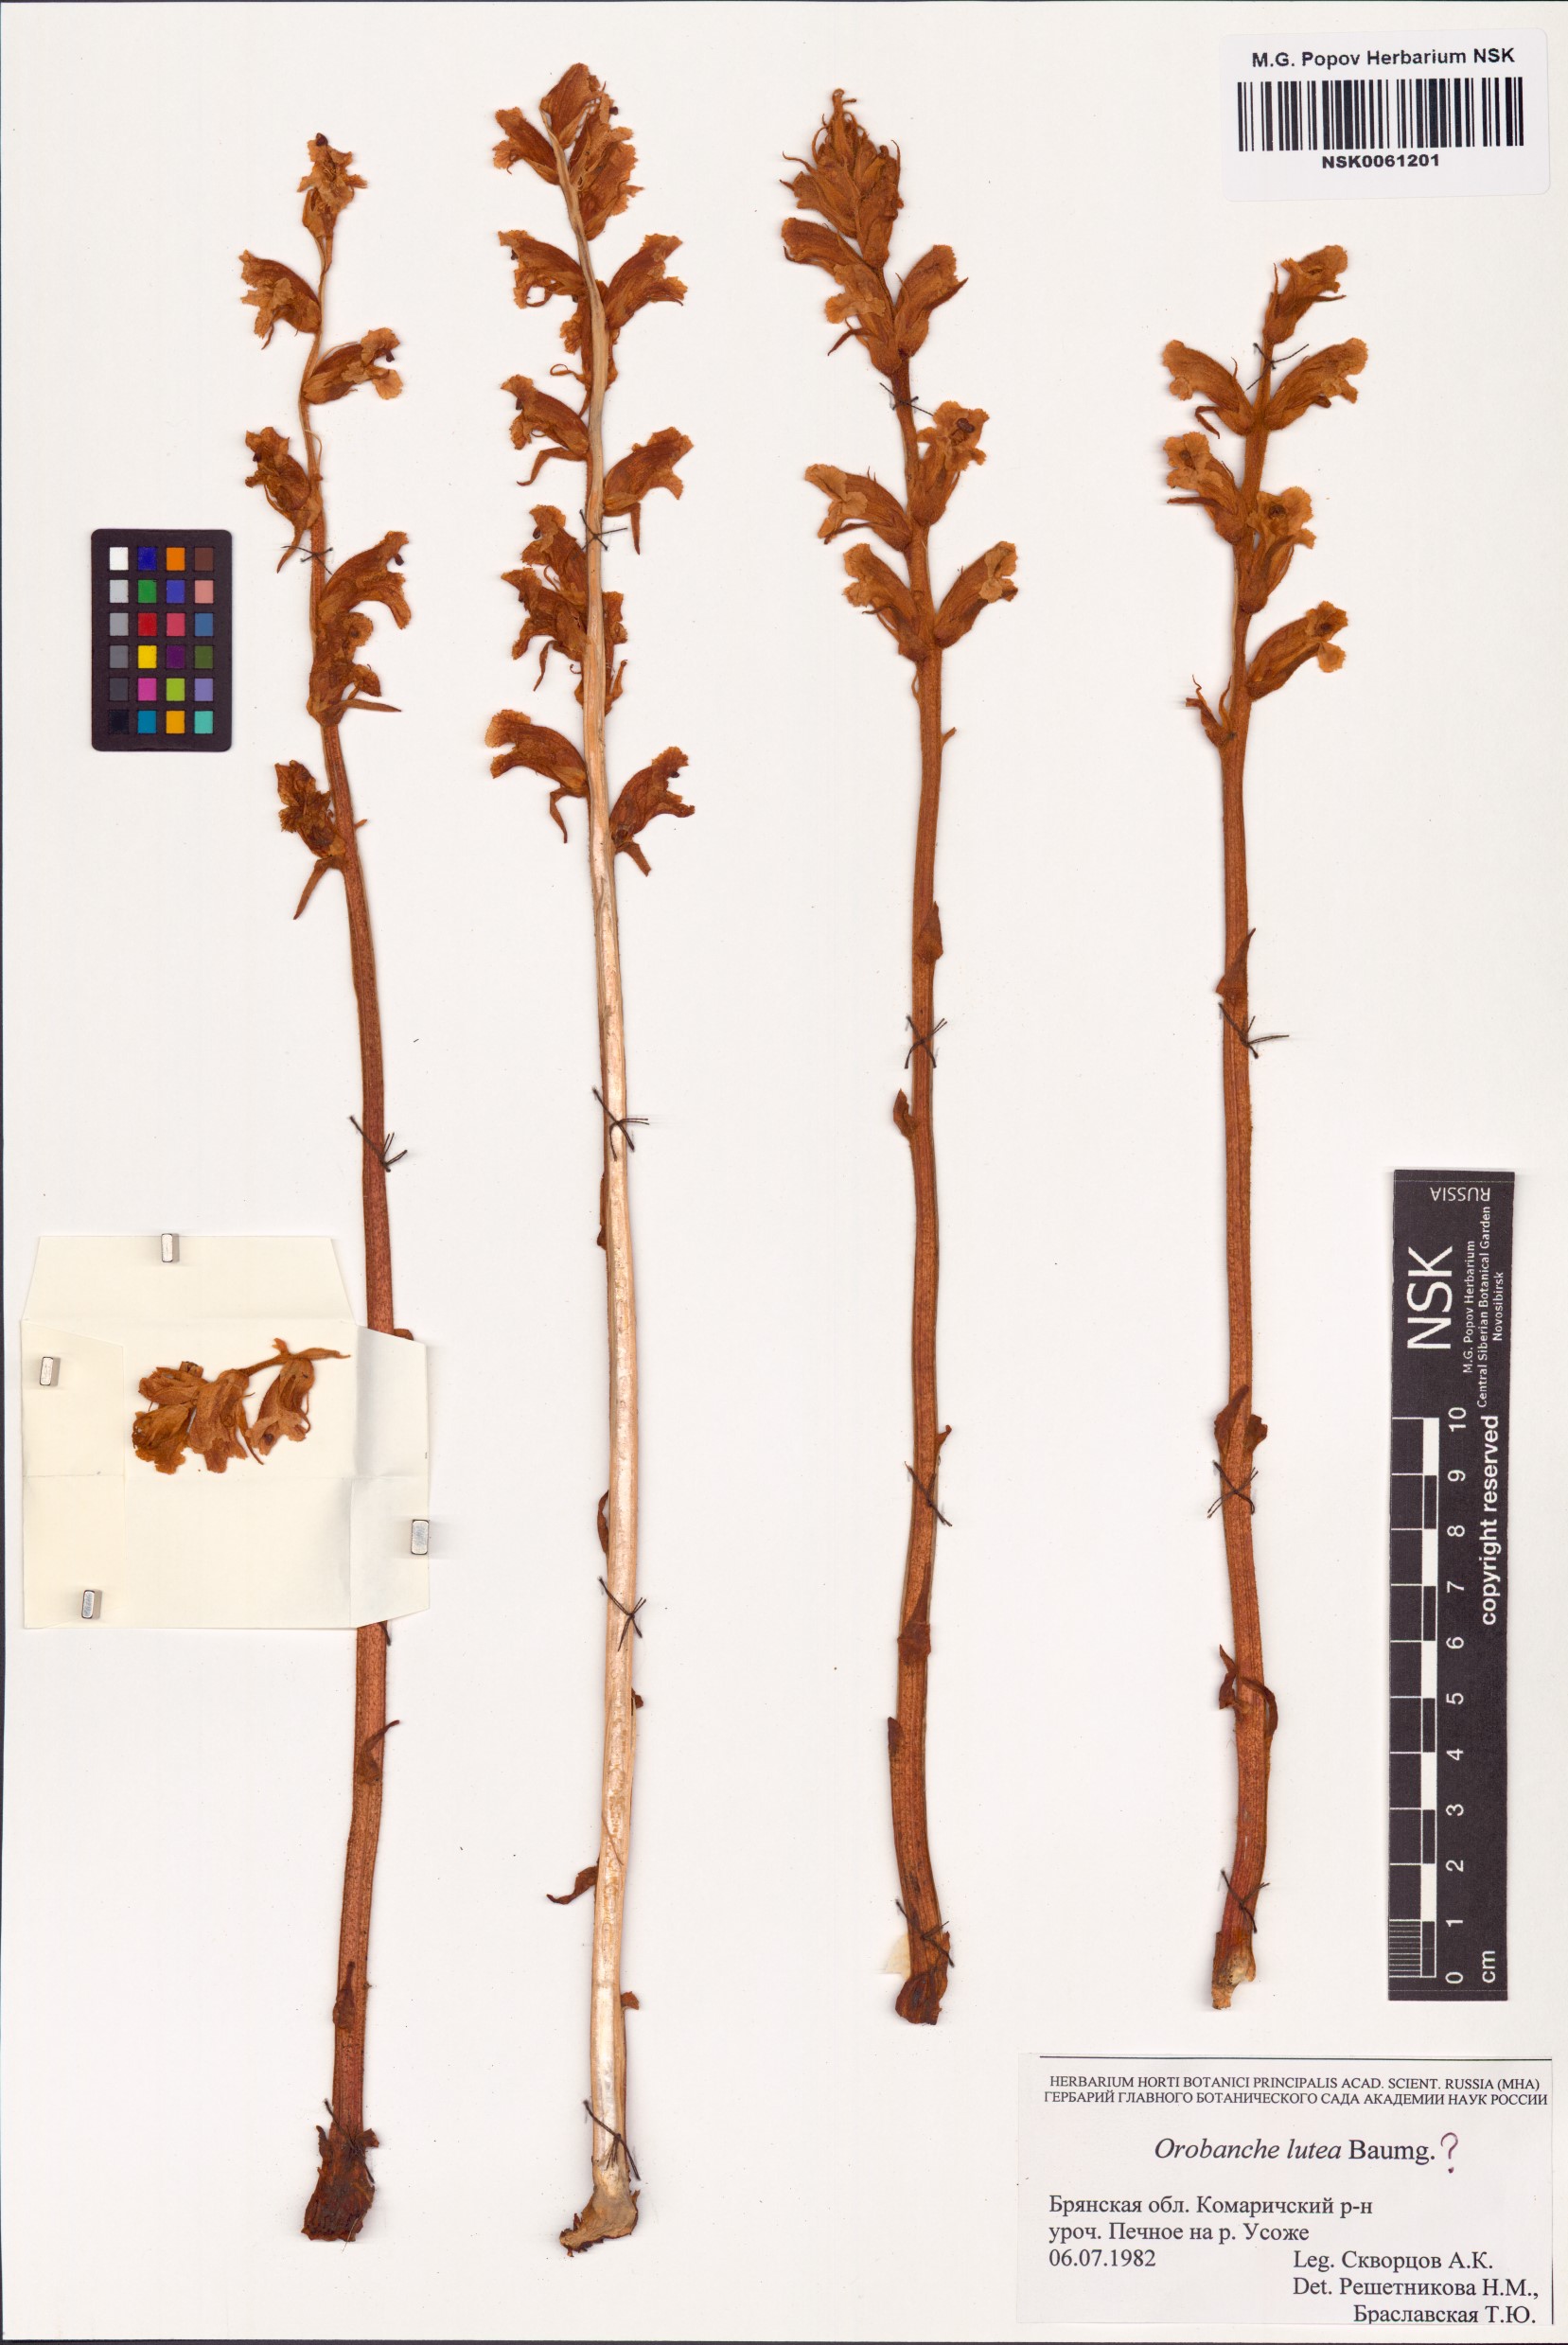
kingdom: Plantae
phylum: Tracheophyta
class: Magnoliopsida
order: Lamiales
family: Orobanchaceae
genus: Orobanche
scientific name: Orobanche lutea
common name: Yellow broomrape
